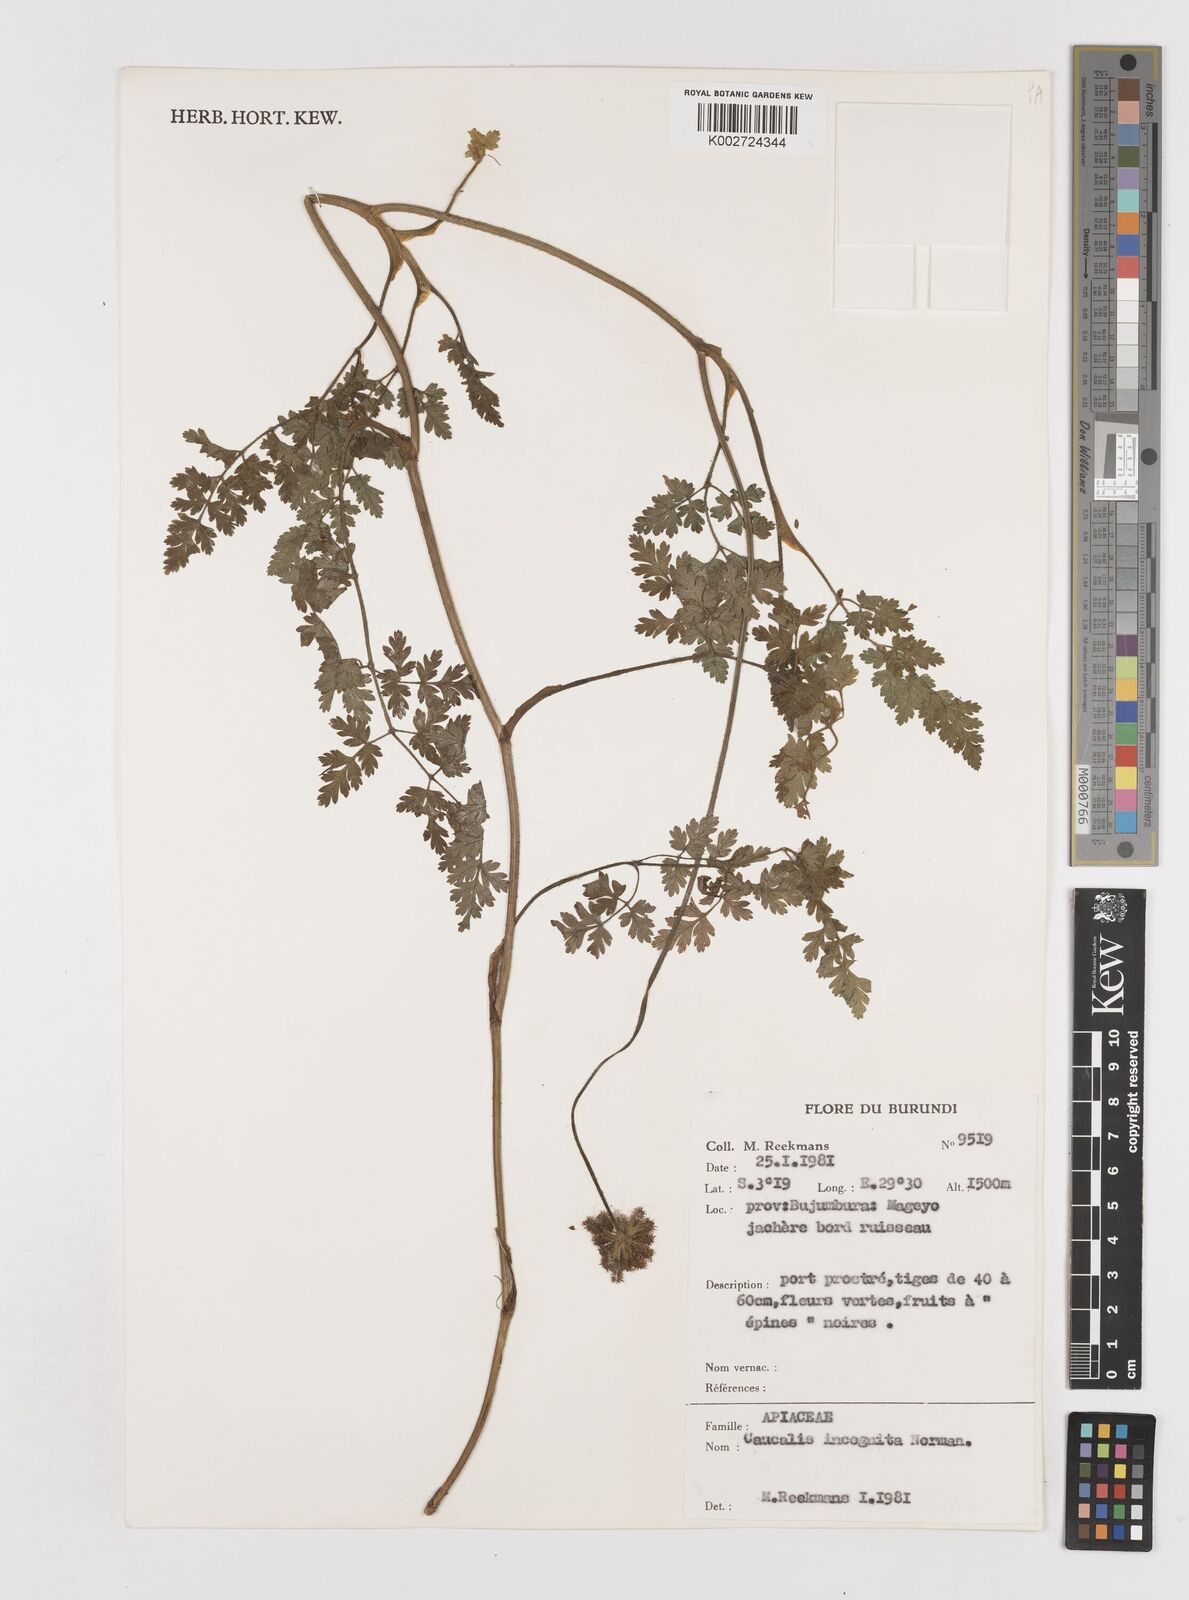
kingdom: Plantae
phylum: Tracheophyta
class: Magnoliopsida
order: Apiales
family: Apiaceae
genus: Daucus
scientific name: Daucus incognitus
